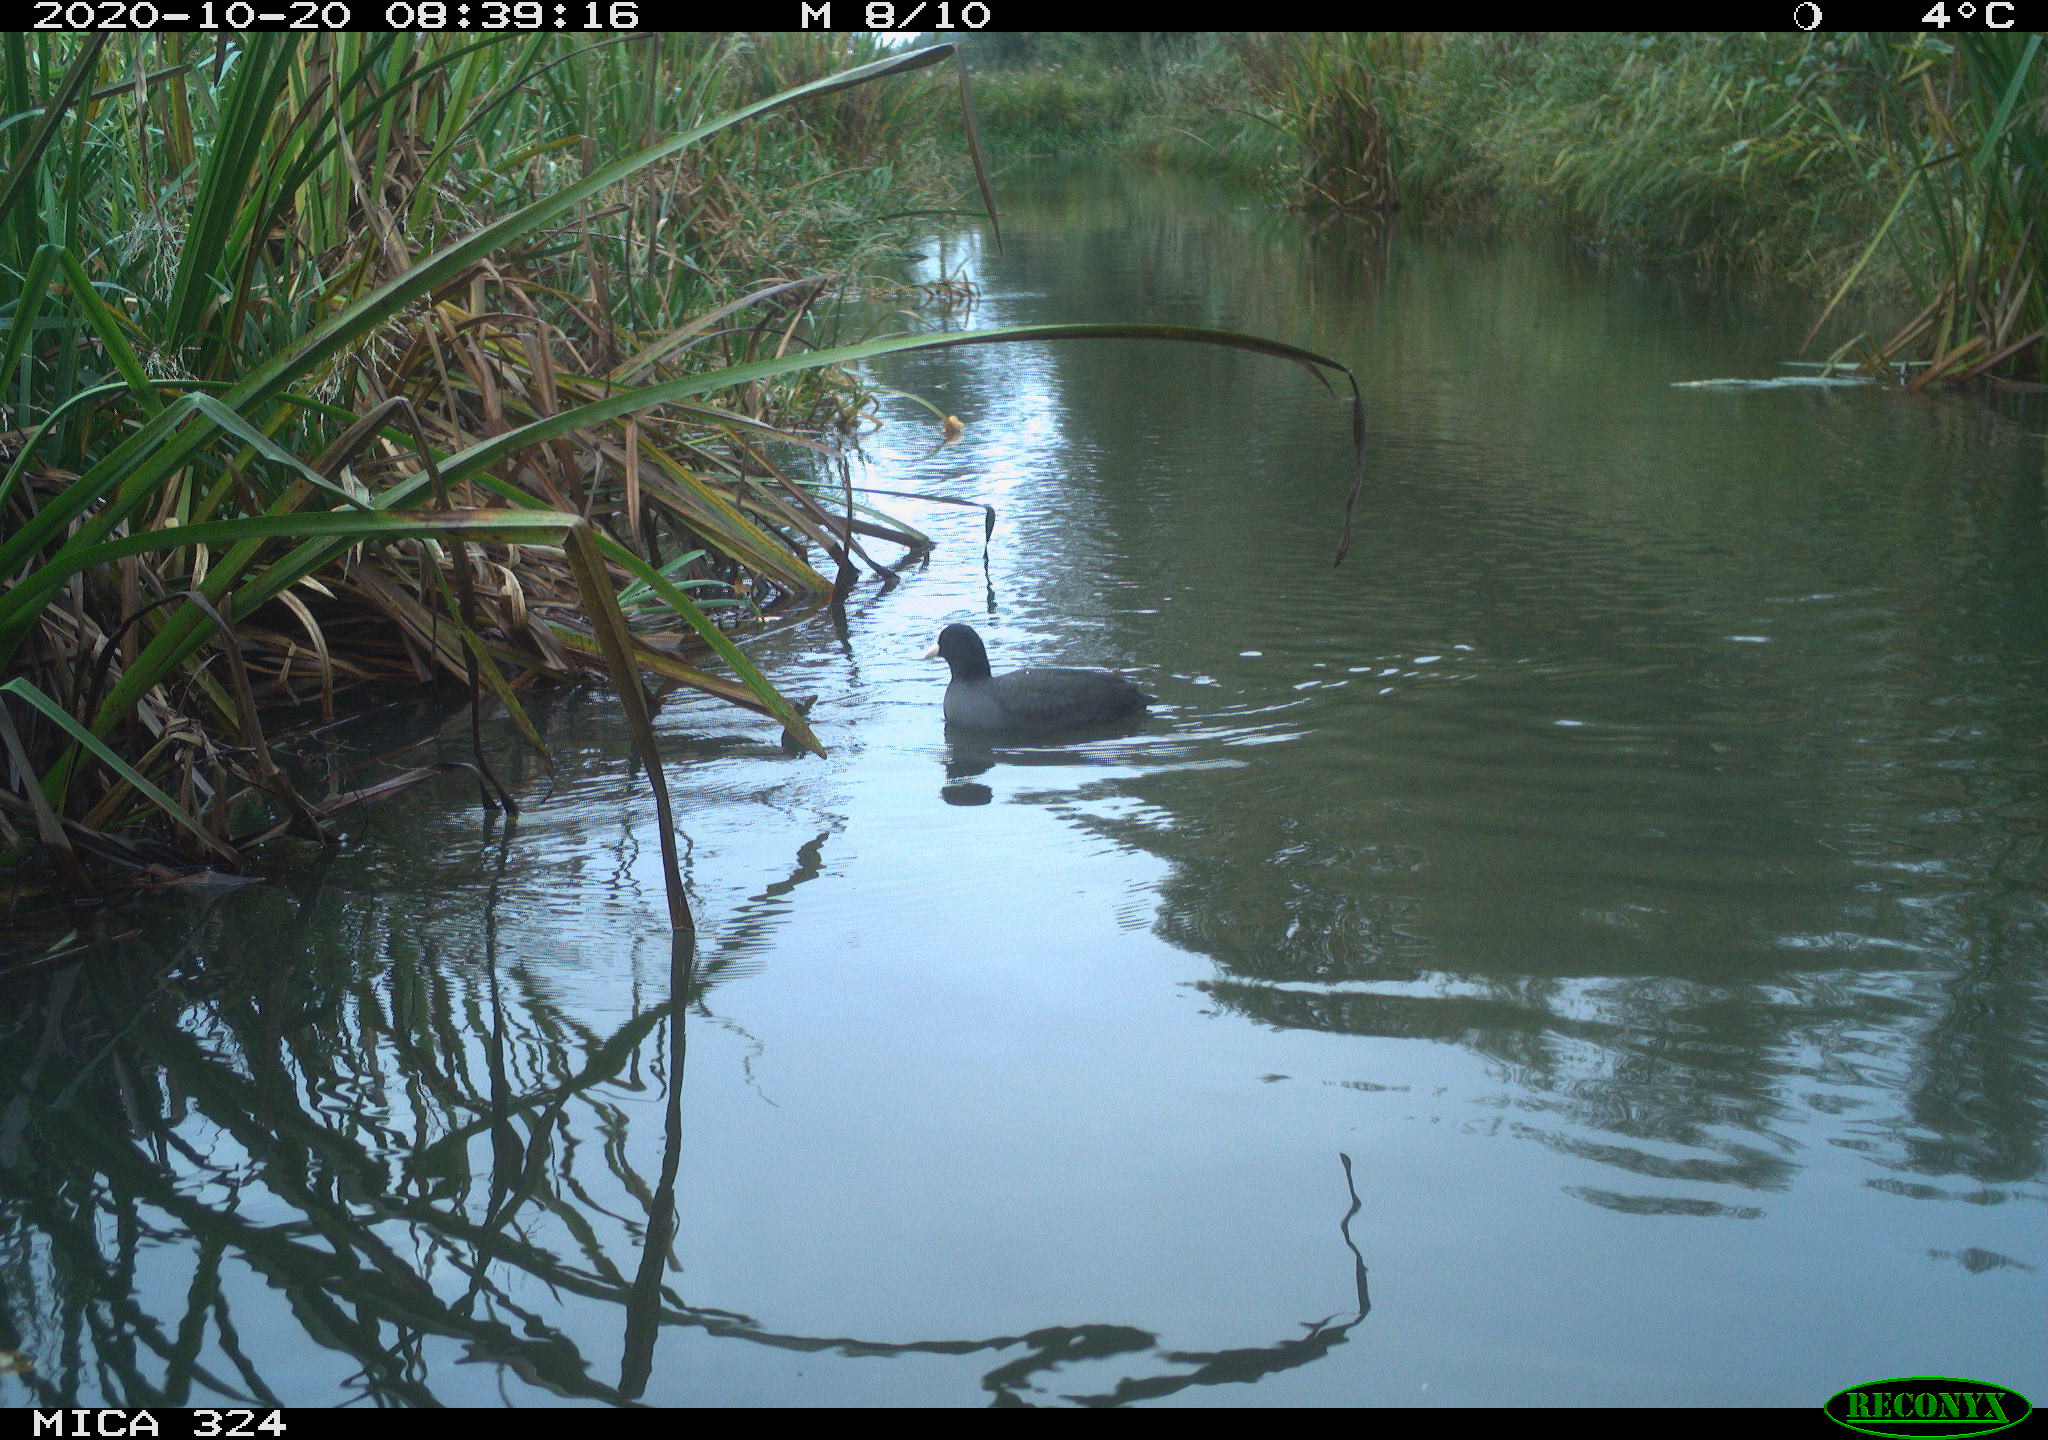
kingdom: Animalia
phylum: Chordata
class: Aves
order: Gruiformes
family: Rallidae
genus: Fulica
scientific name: Fulica atra
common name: Eurasian coot
